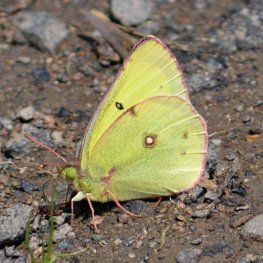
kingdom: Animalia
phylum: Arthropoda
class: Insecta
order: Lepidoptera
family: Pieridae
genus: Colias
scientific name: Colias philodice
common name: Clouded Sulphur
